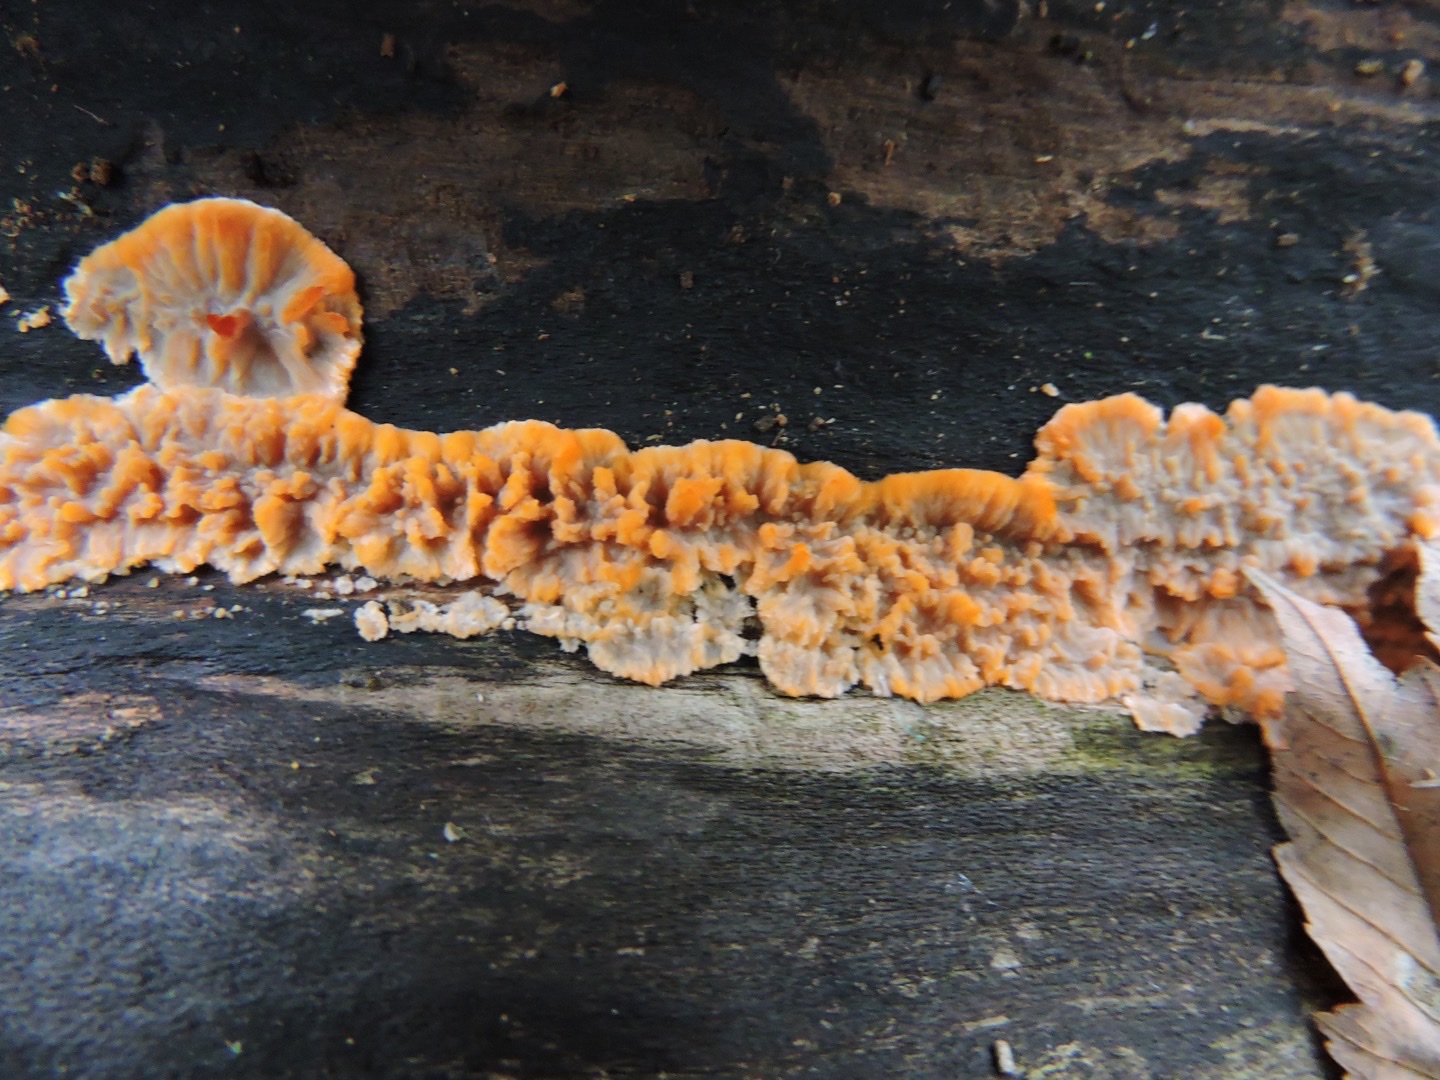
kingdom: Fungi
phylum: Basidiomycota
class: Agaricomycetes
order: Polyporales
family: Meruliaceae
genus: Phlebia
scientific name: Phlebia radiata
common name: stråle-åresvamp
